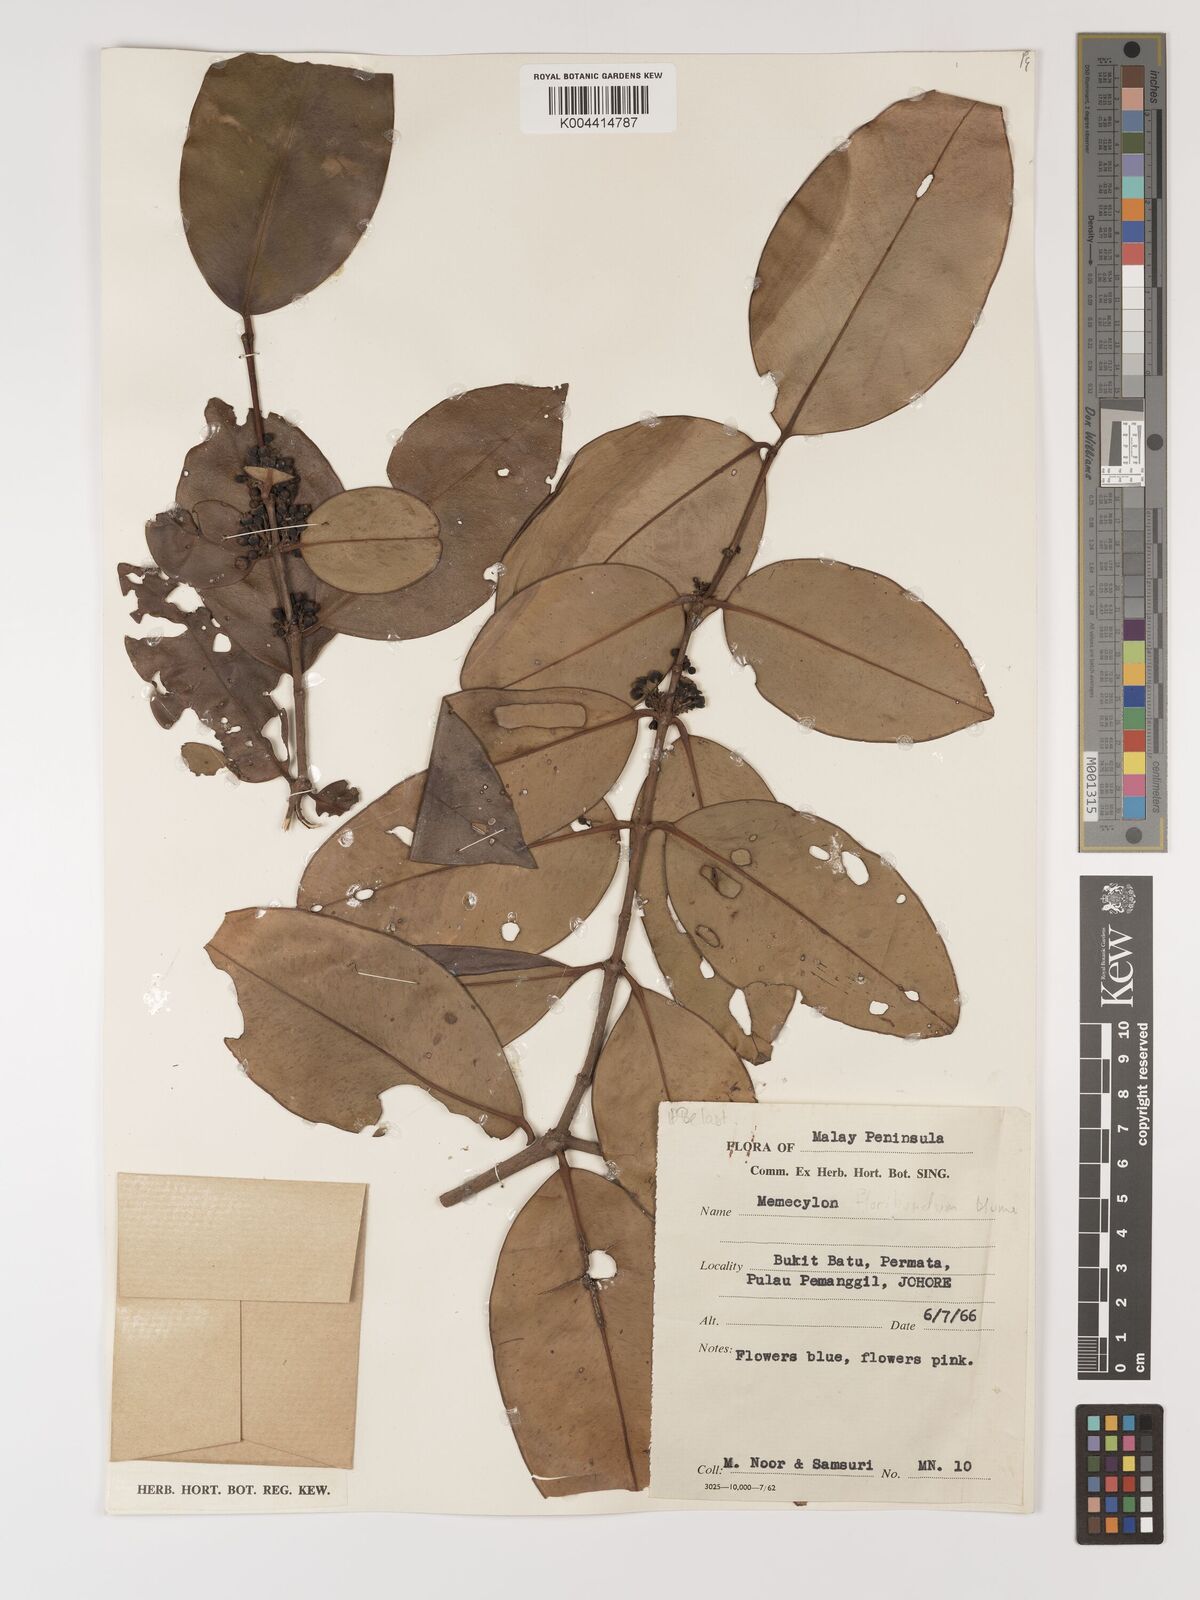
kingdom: Plantae
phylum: Tracheophyta
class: Magnoliopsida
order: Myrtales
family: Melastomataceae
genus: Memecylon
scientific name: Memecylon
